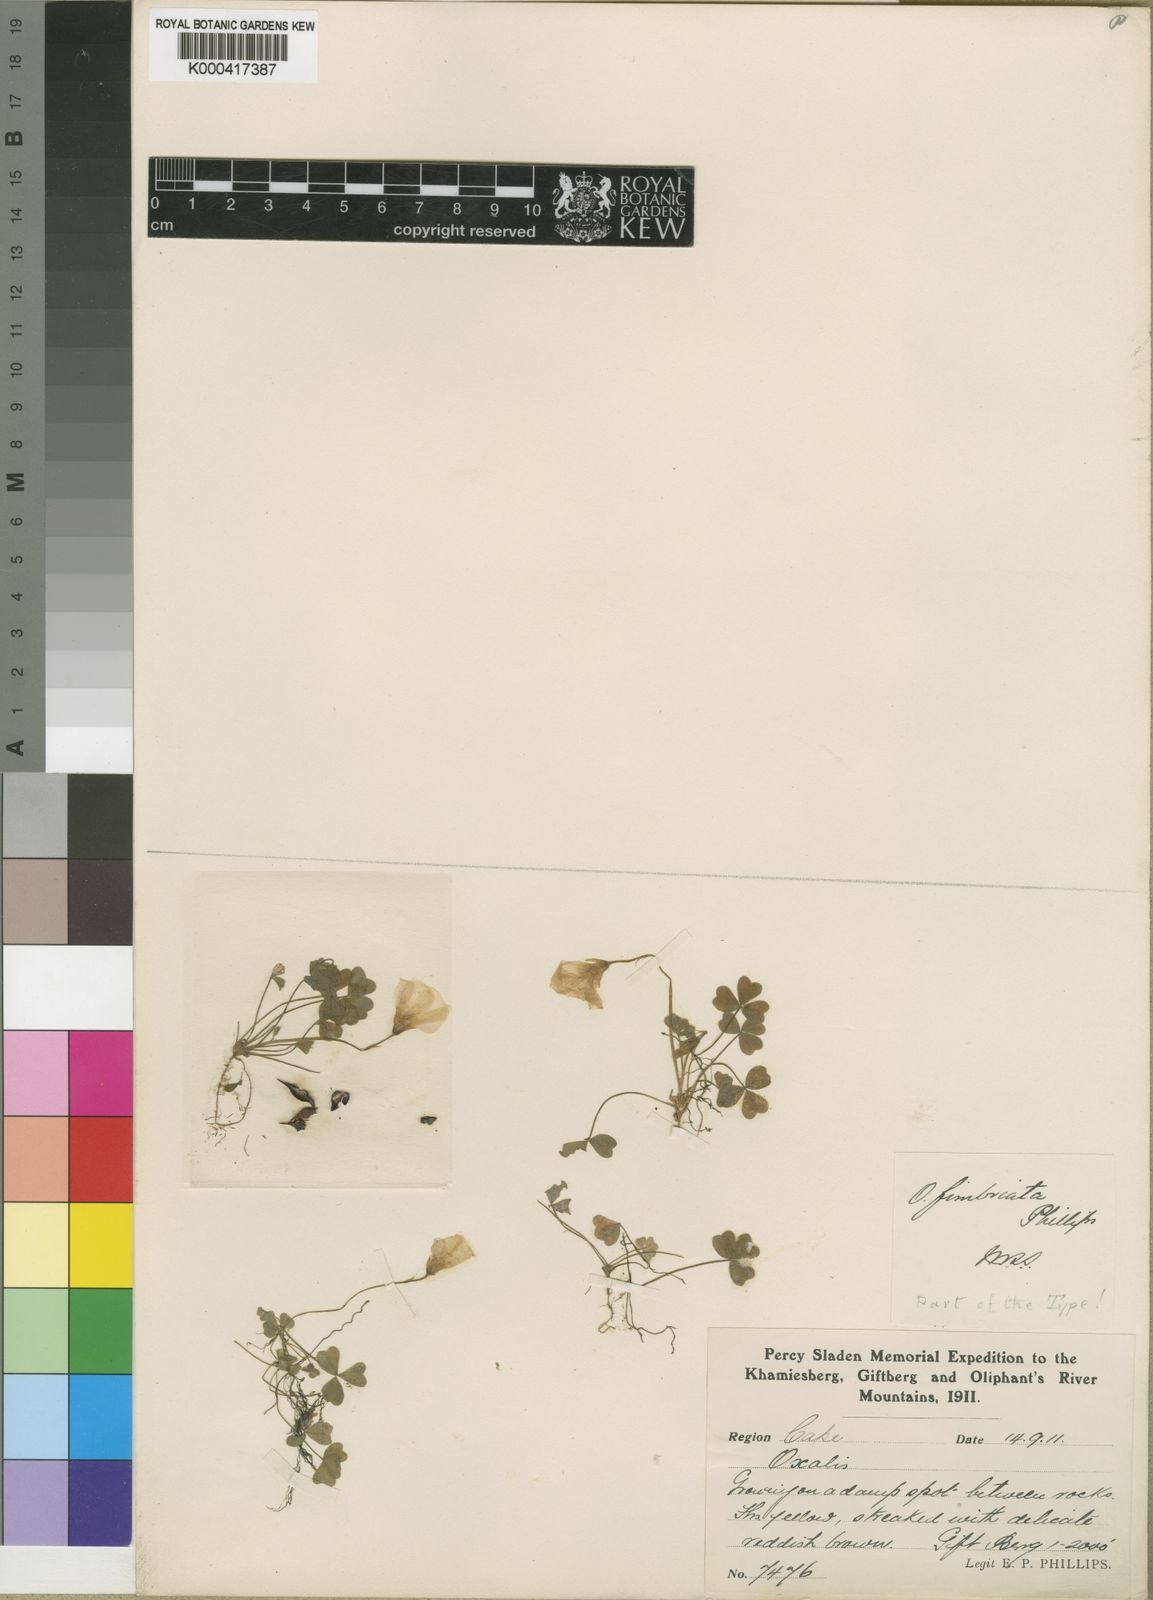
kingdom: Plantae
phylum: Tracheophyta
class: Magnoliopsida
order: Oxalidales
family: Oxalidaceae
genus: Oxalis
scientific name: Oxalis obtusa
